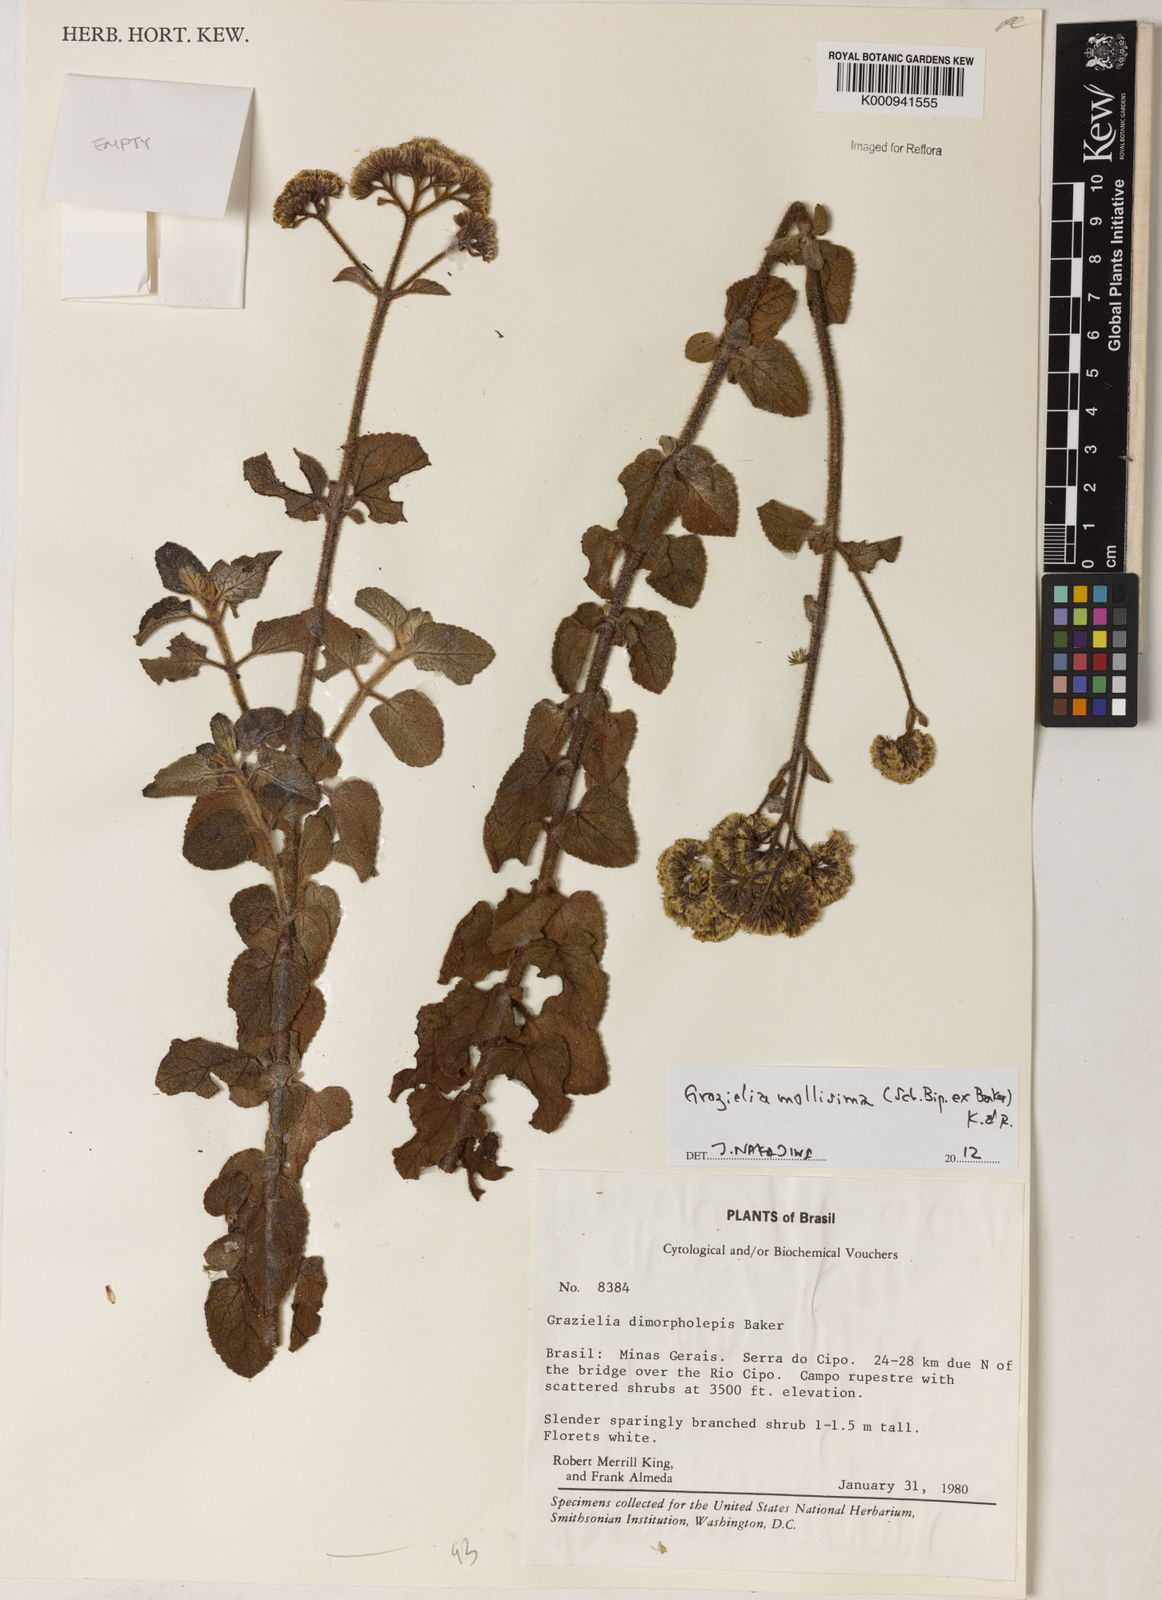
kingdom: Plantae
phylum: Tracheophyta
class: Magnoliopsida
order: Asterales
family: Asteraceae
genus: Grazielia
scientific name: Grazielia mollissima
